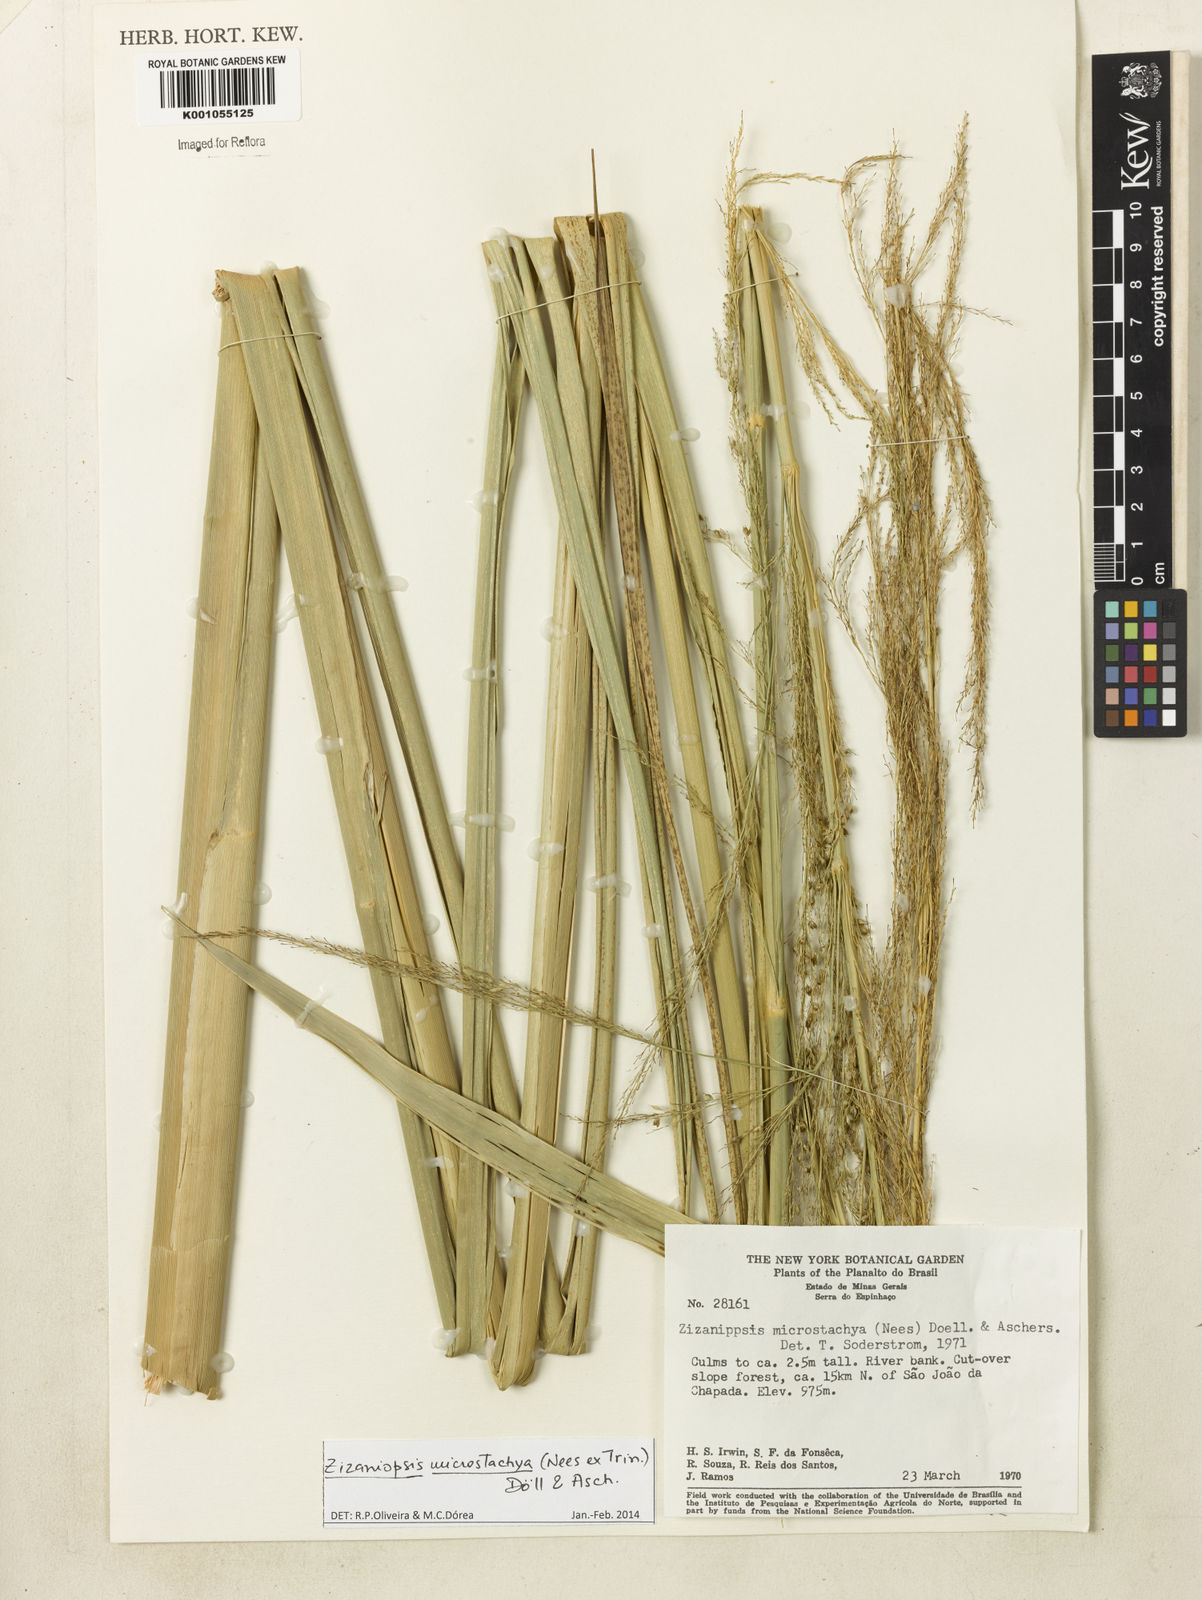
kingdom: Plantae
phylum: Tracheophyta
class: Liliopsida
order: Poales
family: Poaceae
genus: Zizaniopsis
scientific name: Zizaniopsis
